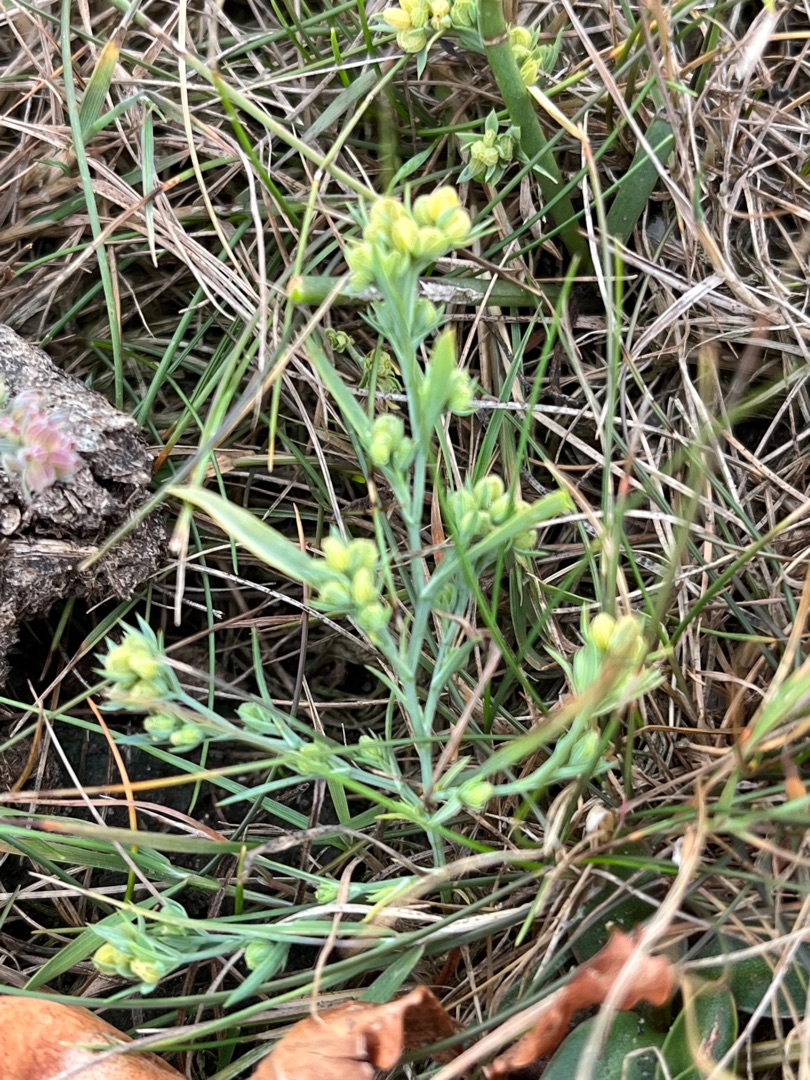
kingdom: Plantae
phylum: Tracheophyta
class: Magnoliopsida
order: Apiales
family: Apiaceae
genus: Bupleurum
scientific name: Bupleurum tenuissimum
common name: Smalbladet hareøre
